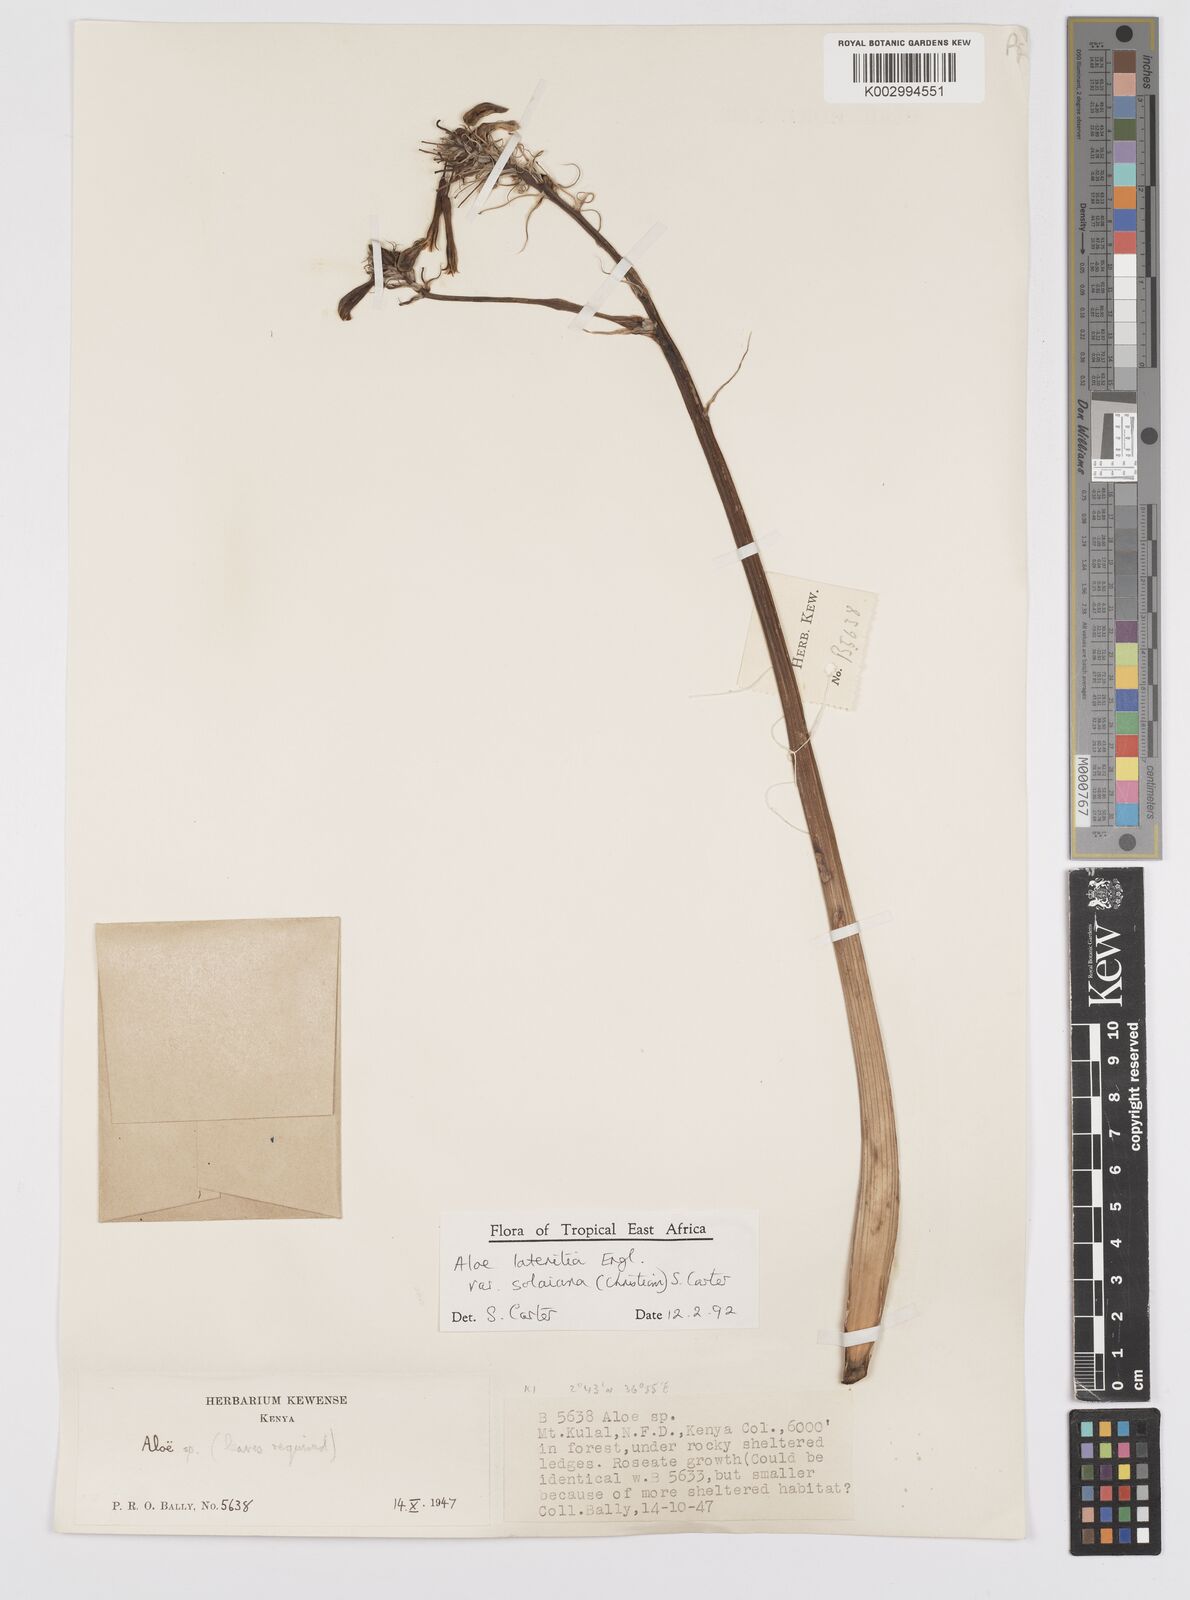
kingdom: Plantae
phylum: Tracheophyta
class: Liliopsida
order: Asparagales
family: Asphodelaceae
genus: Aloe
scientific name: Aloe lateritia
